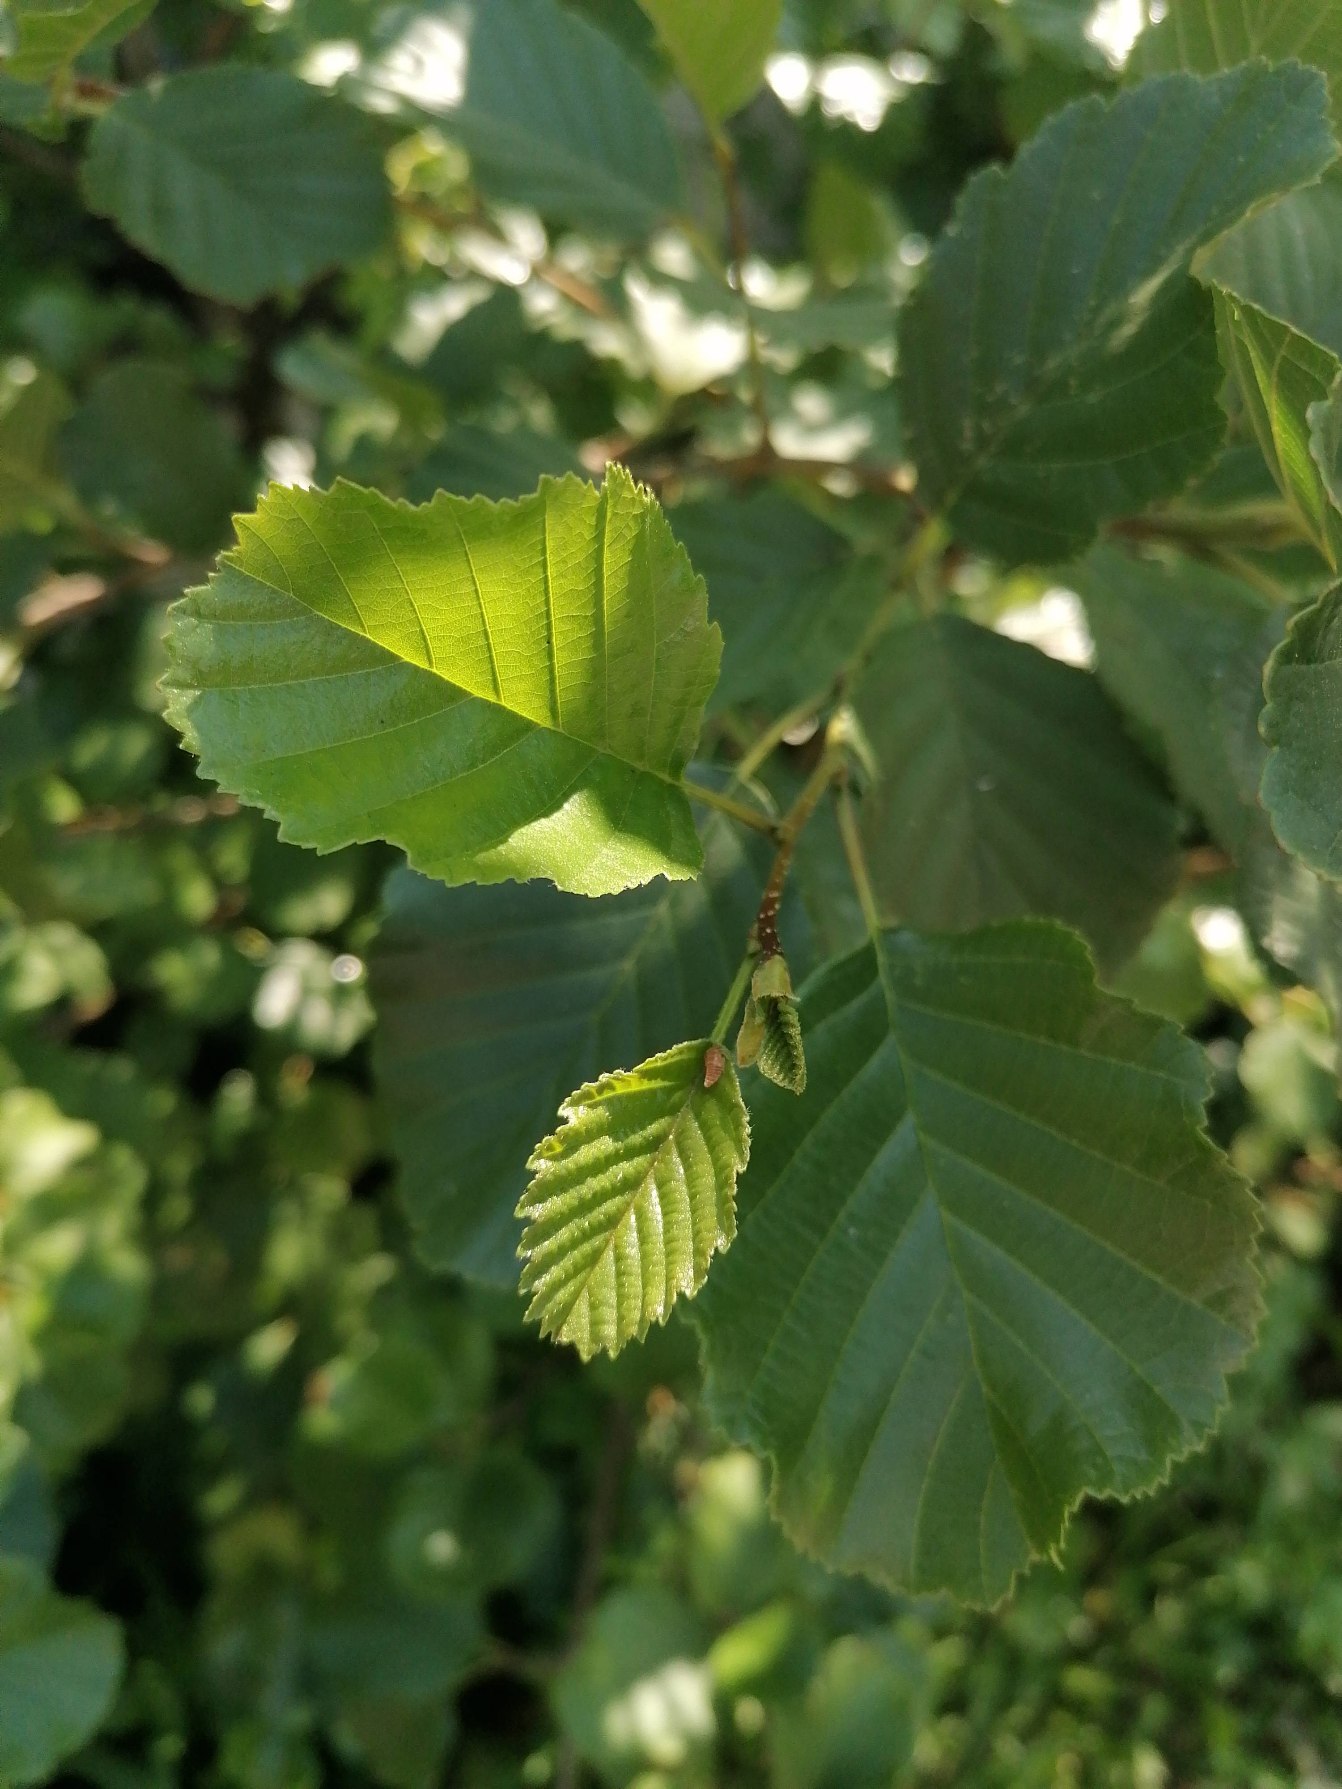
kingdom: Plantae
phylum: Tracheophyta
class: Magnoliopsida
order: Fagales
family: Betulaceae
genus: Alnus
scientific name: Alnus glutinosa
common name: Rød-el
